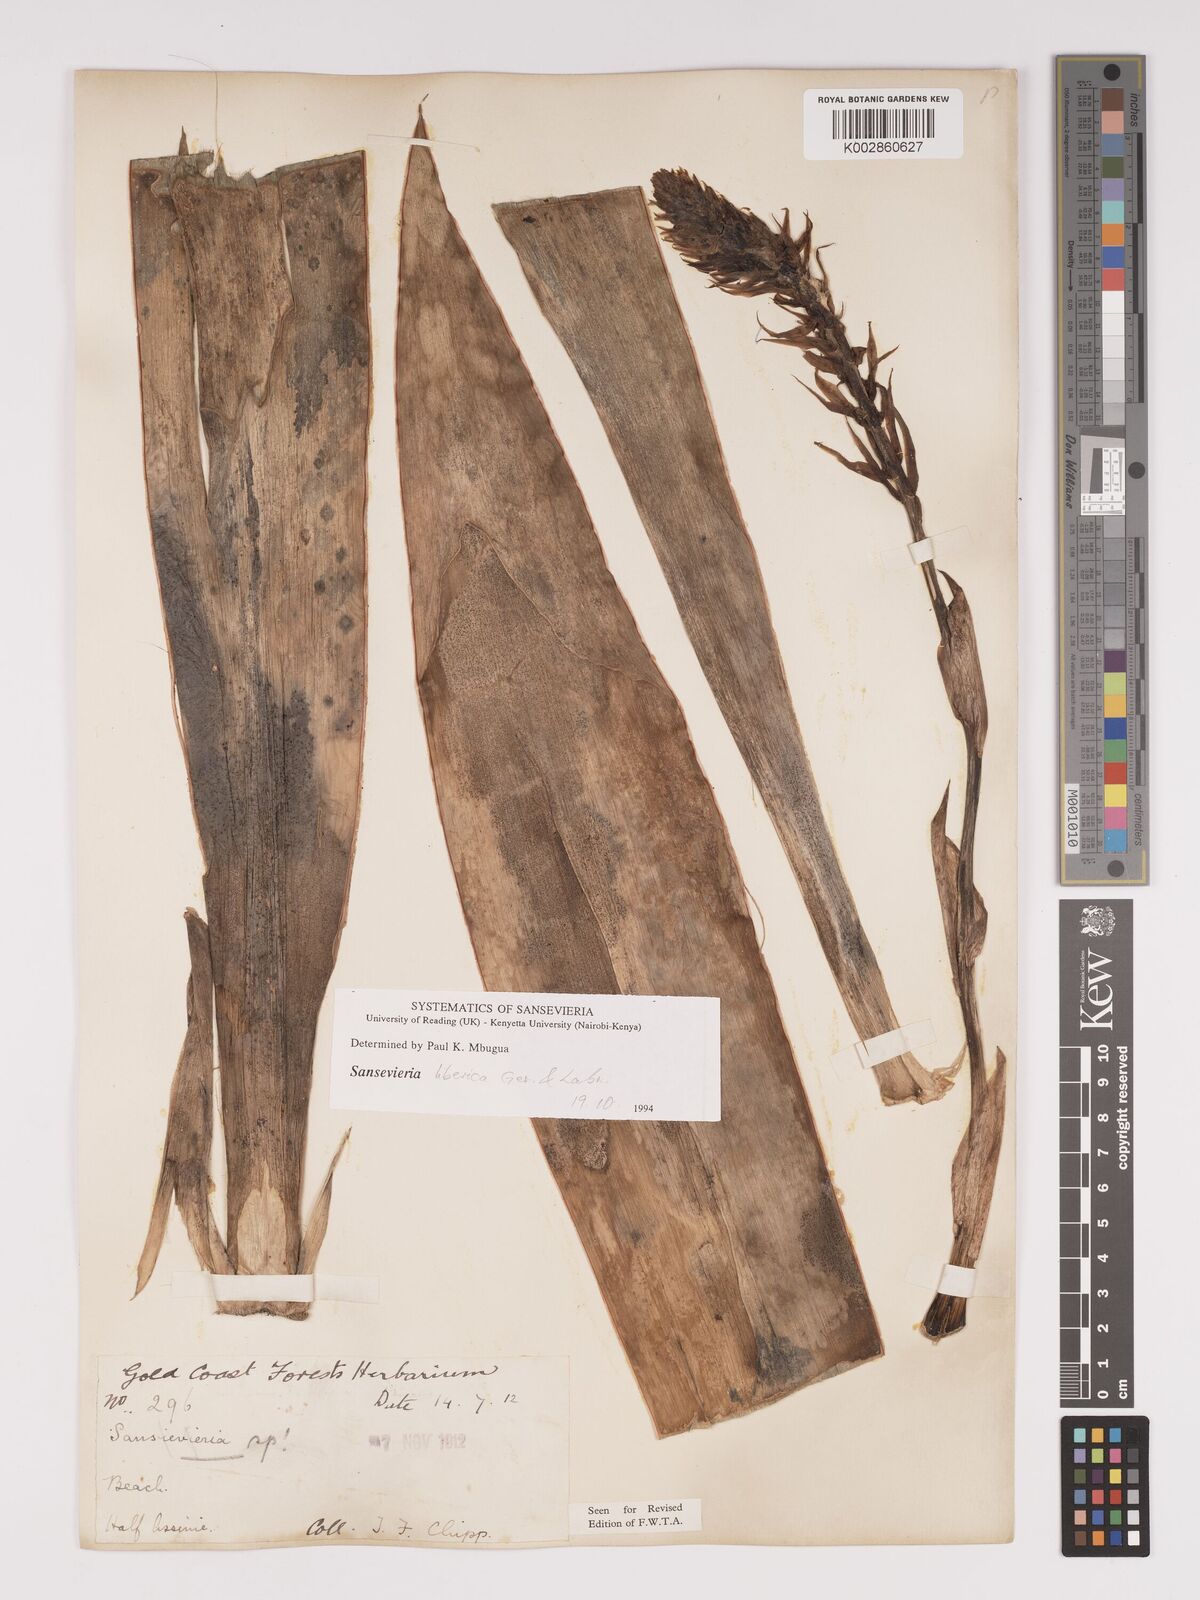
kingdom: Plantae
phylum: Tracheophyta
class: Liliopsida
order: Asparagales
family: Asparagaceae
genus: Dracaena
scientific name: Dracaena liberica
